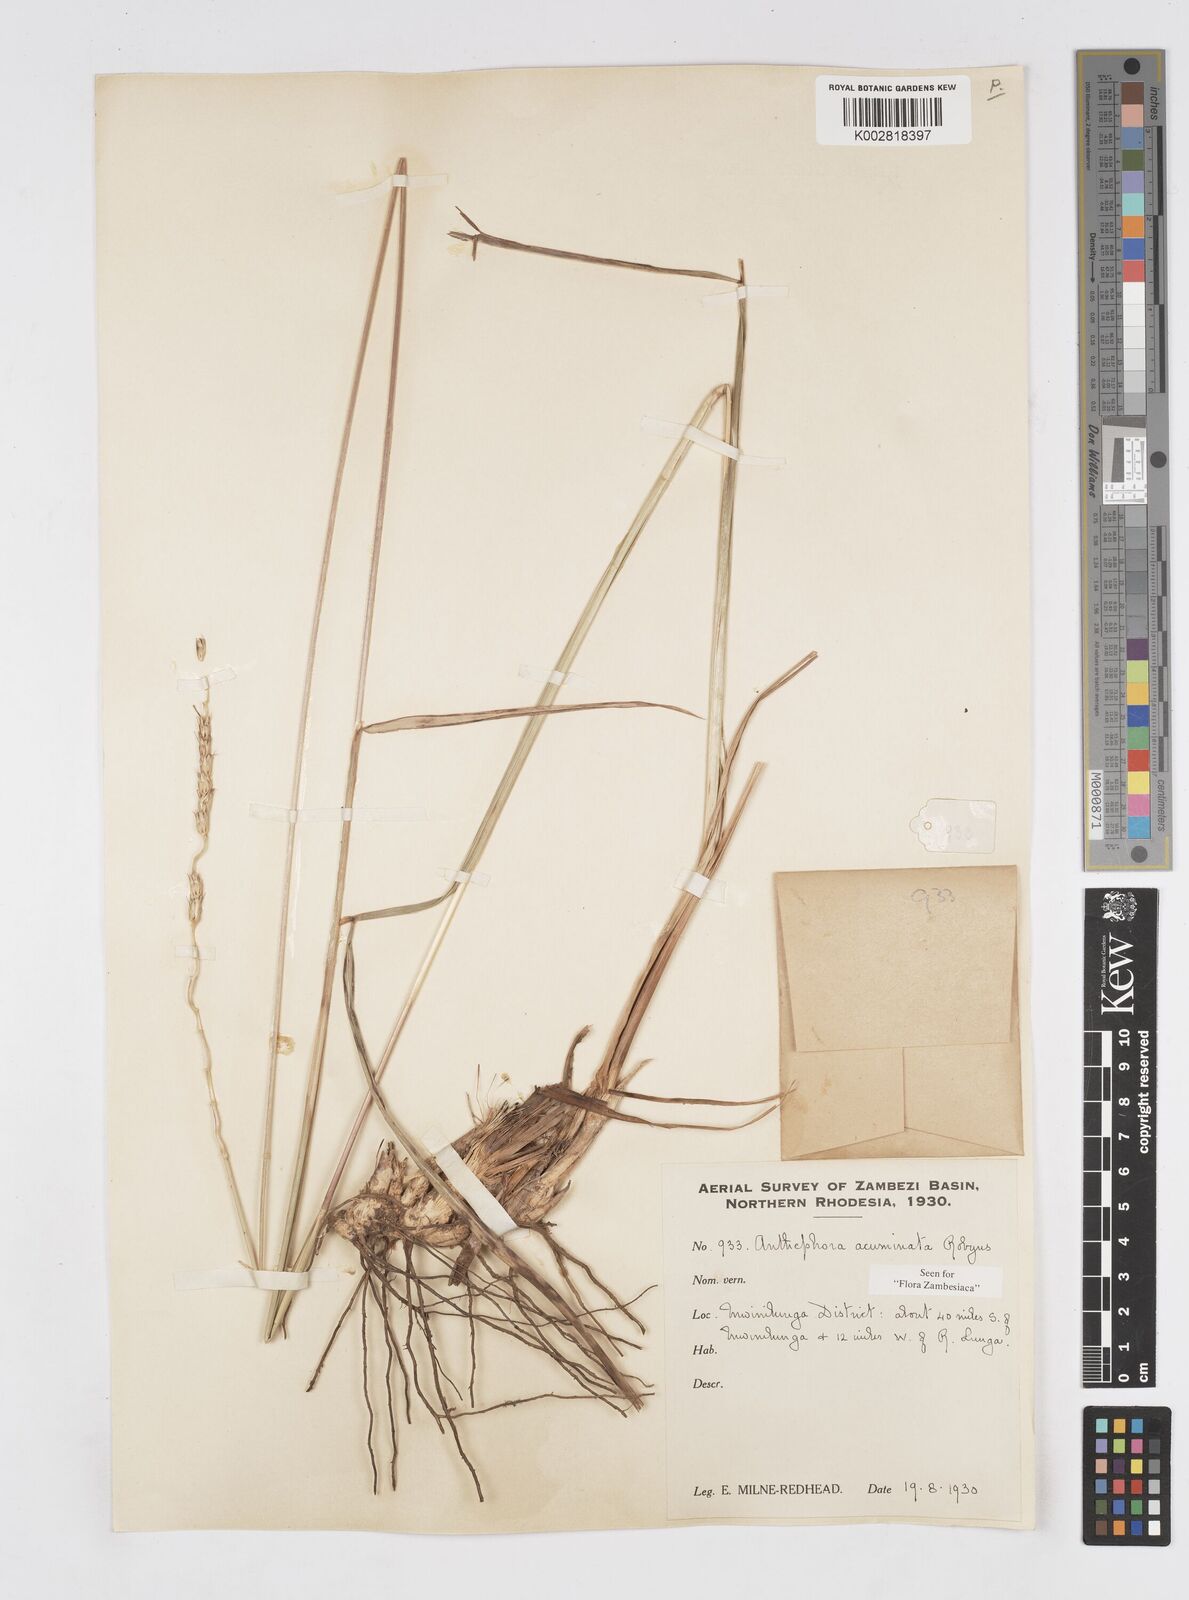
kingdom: Plantae
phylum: Tracheophyta
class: Liliopsida
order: Poales
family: Poaceae
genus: Anthephora
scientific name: Anthephora elongata
